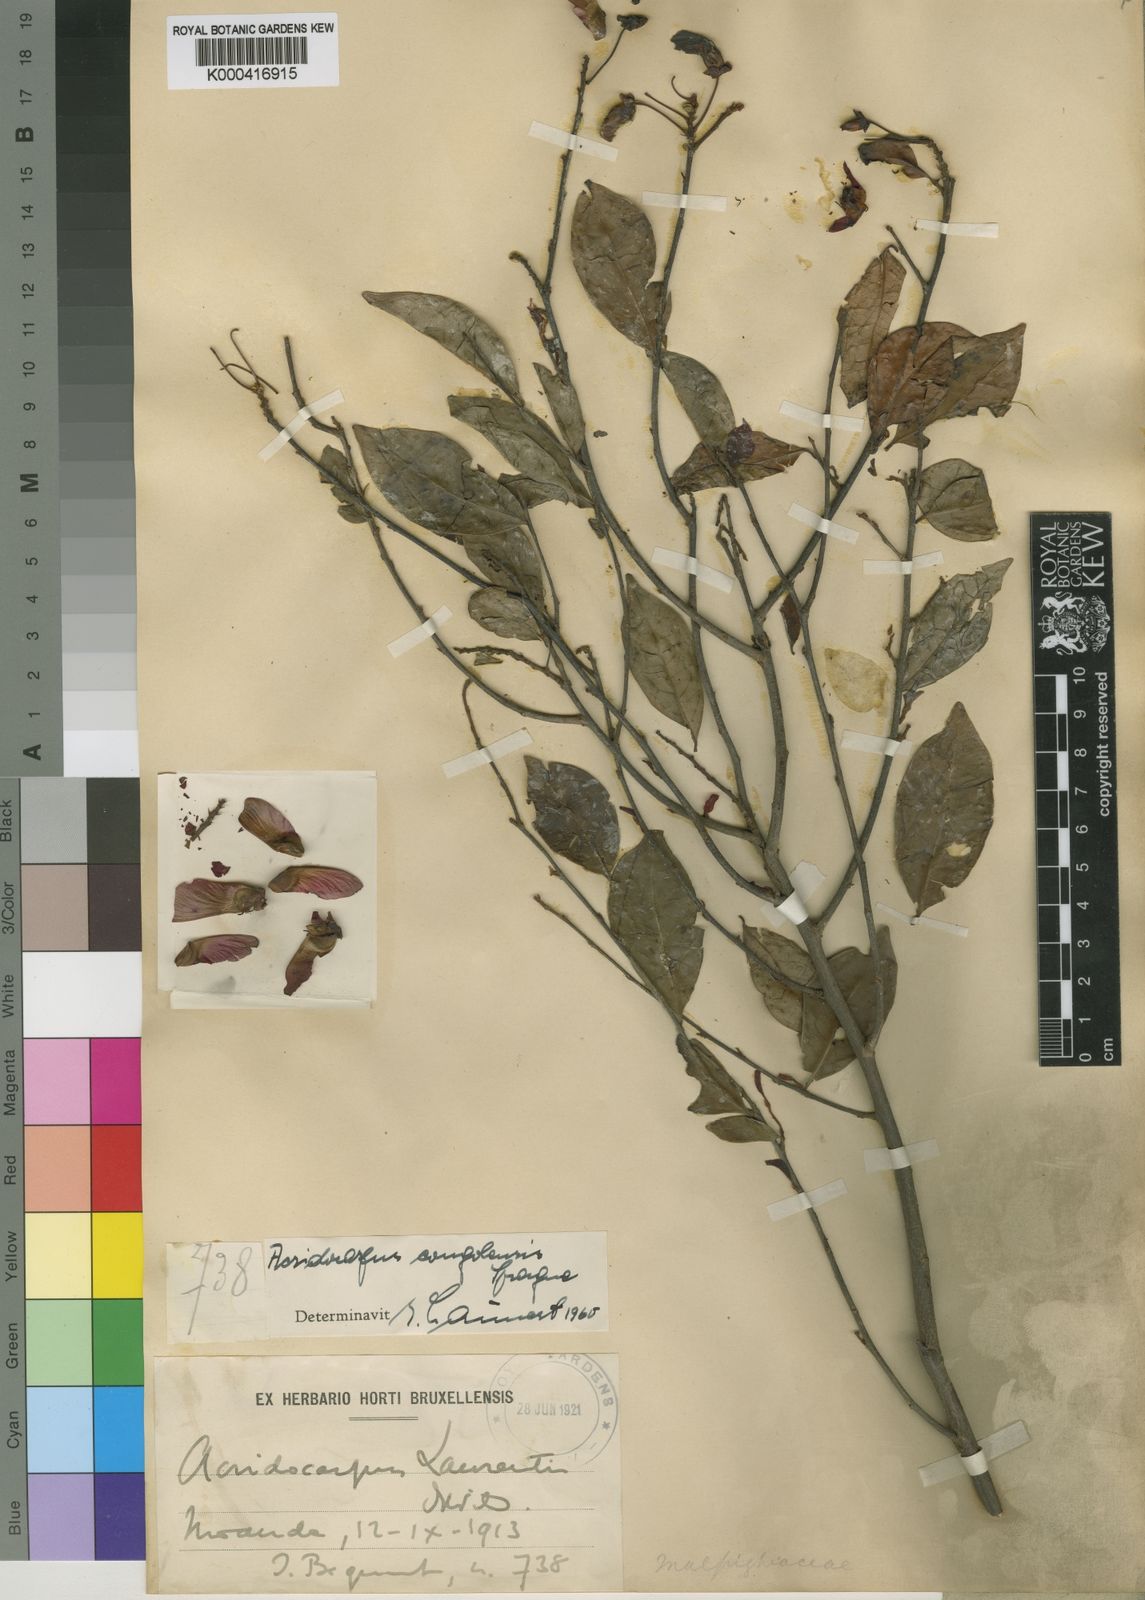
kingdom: Plantae
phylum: Tracheophyta
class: Magnoliopsida
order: Malpighiales
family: Malpighiaceae
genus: Acridocarpus
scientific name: Acridocarpus congolensis
